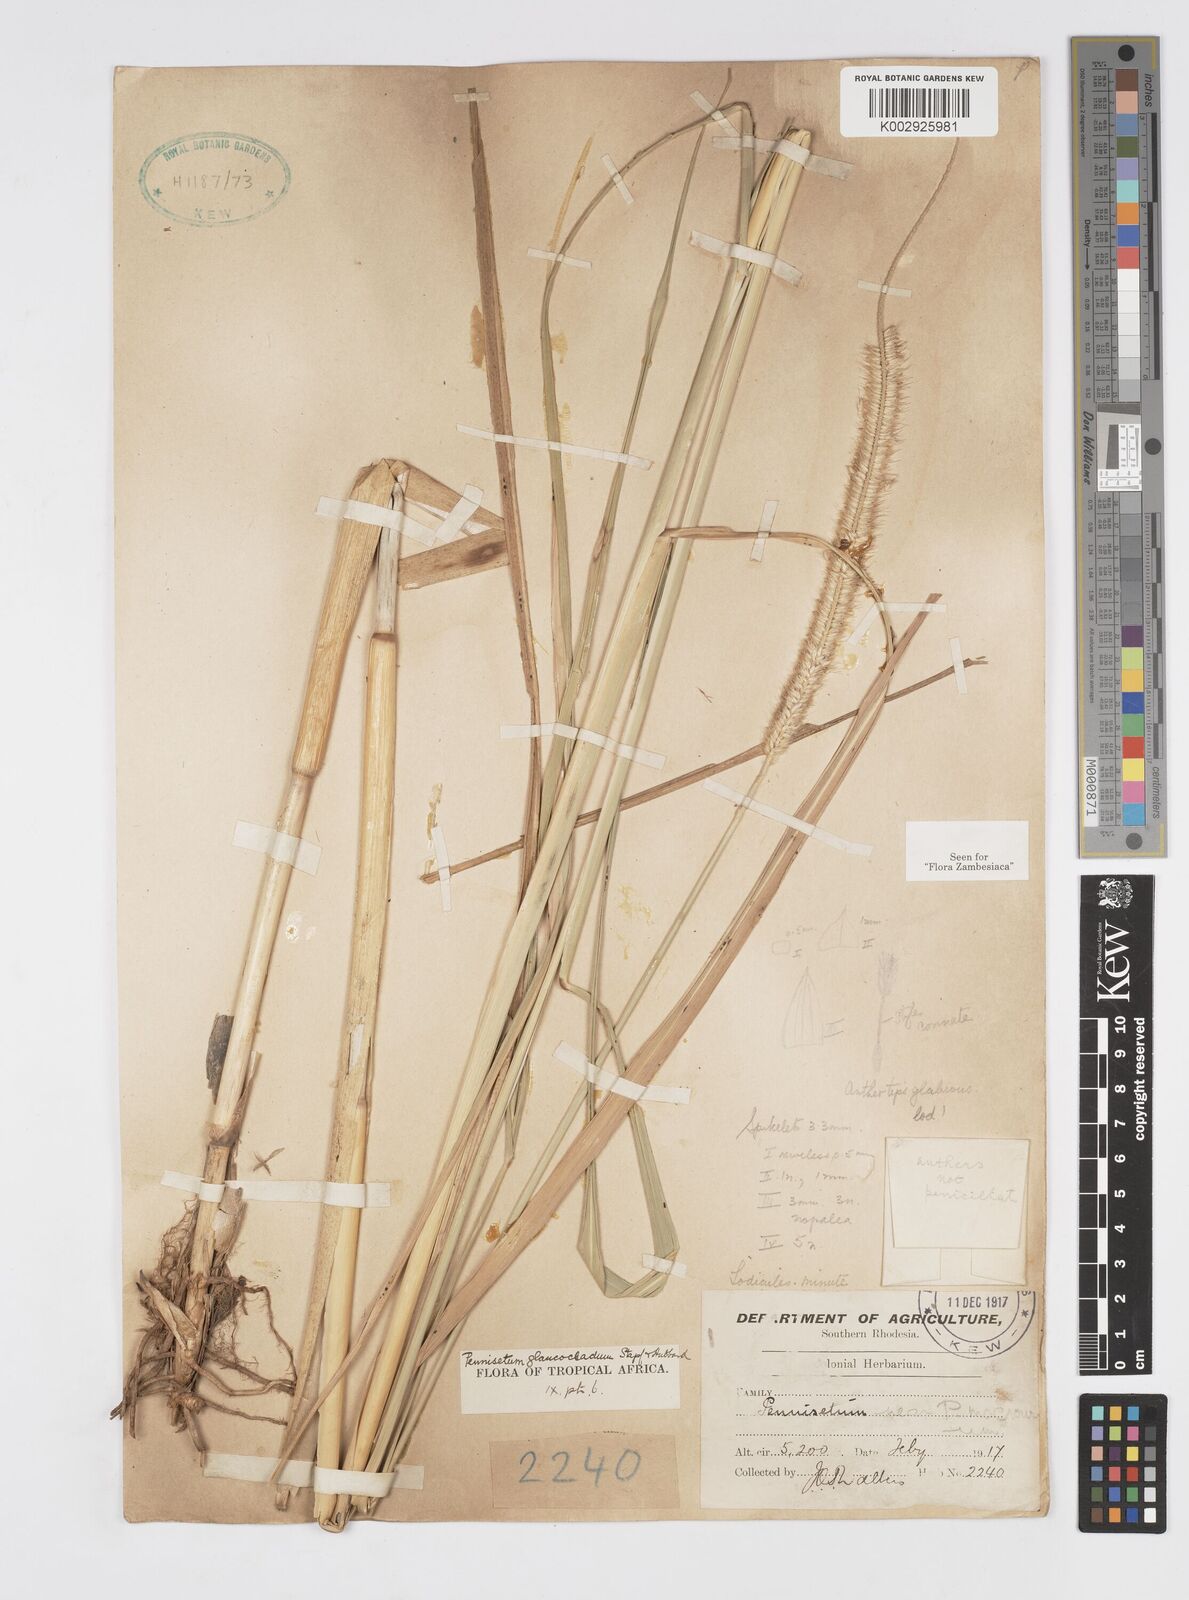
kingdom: Plantae
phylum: Tracheophyta
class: Liliopsida
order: Poales
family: Poaceae
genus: Cenchrus
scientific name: Cenchrus caudatus
